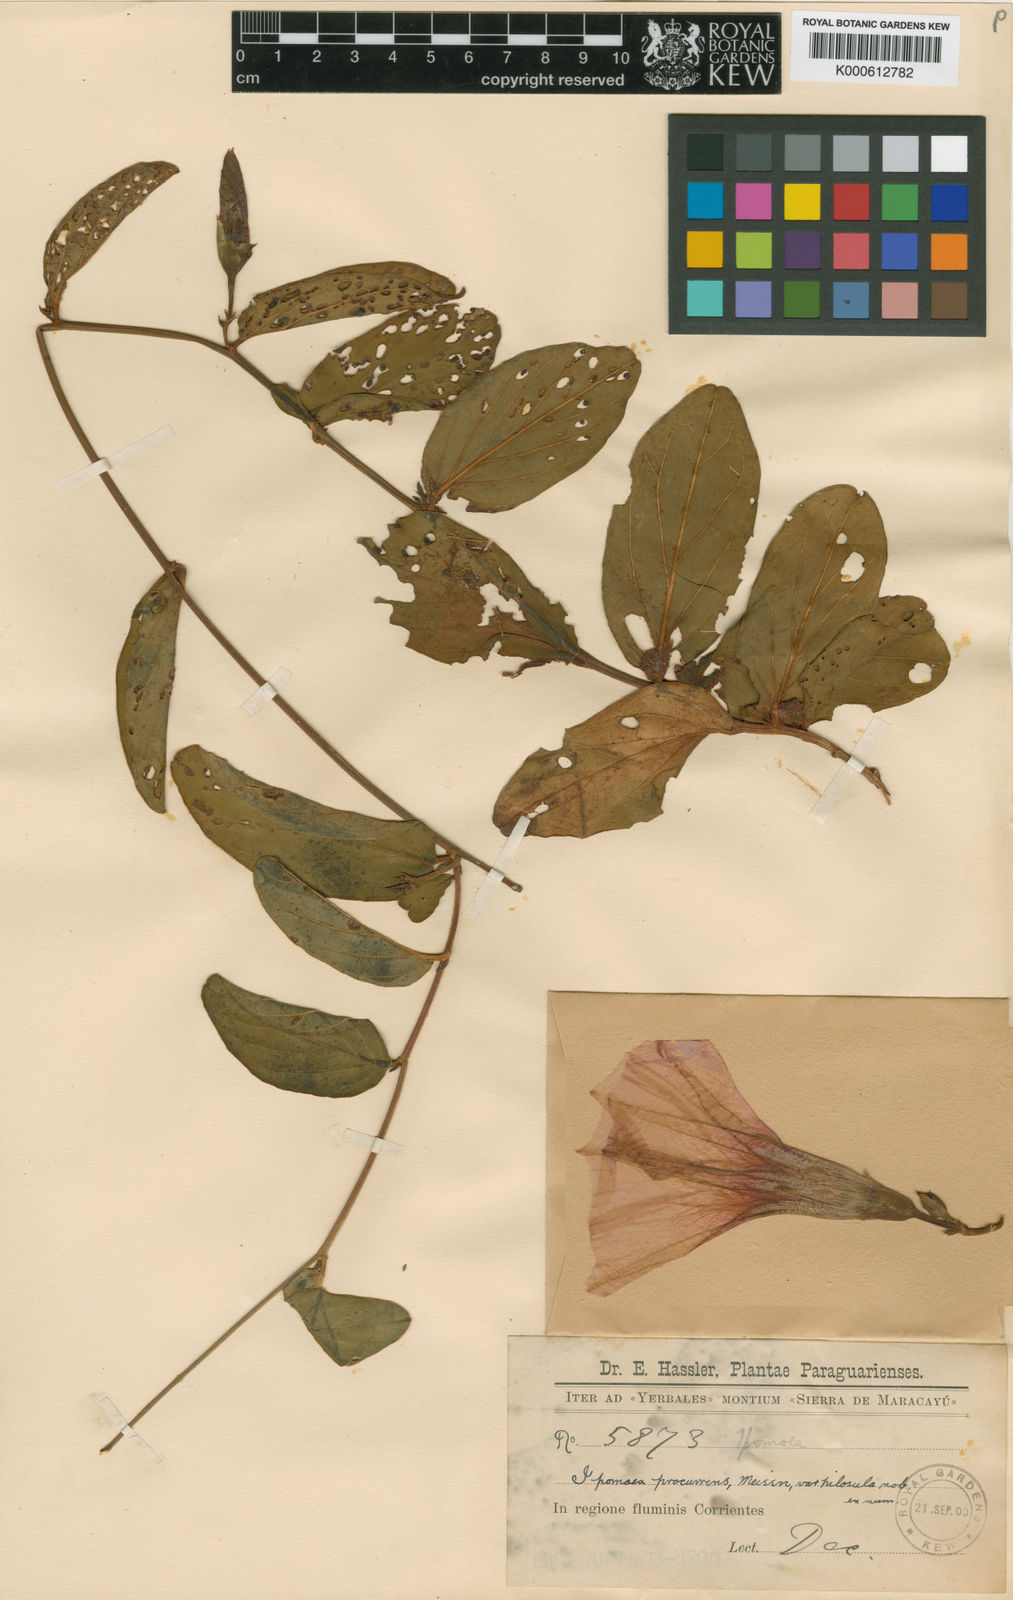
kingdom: Plantae
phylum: Tracheophyta
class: Magnoliopsida
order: Solanales
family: Convolvulaceae
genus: Ipomoea
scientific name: Ipomoea procurrens
